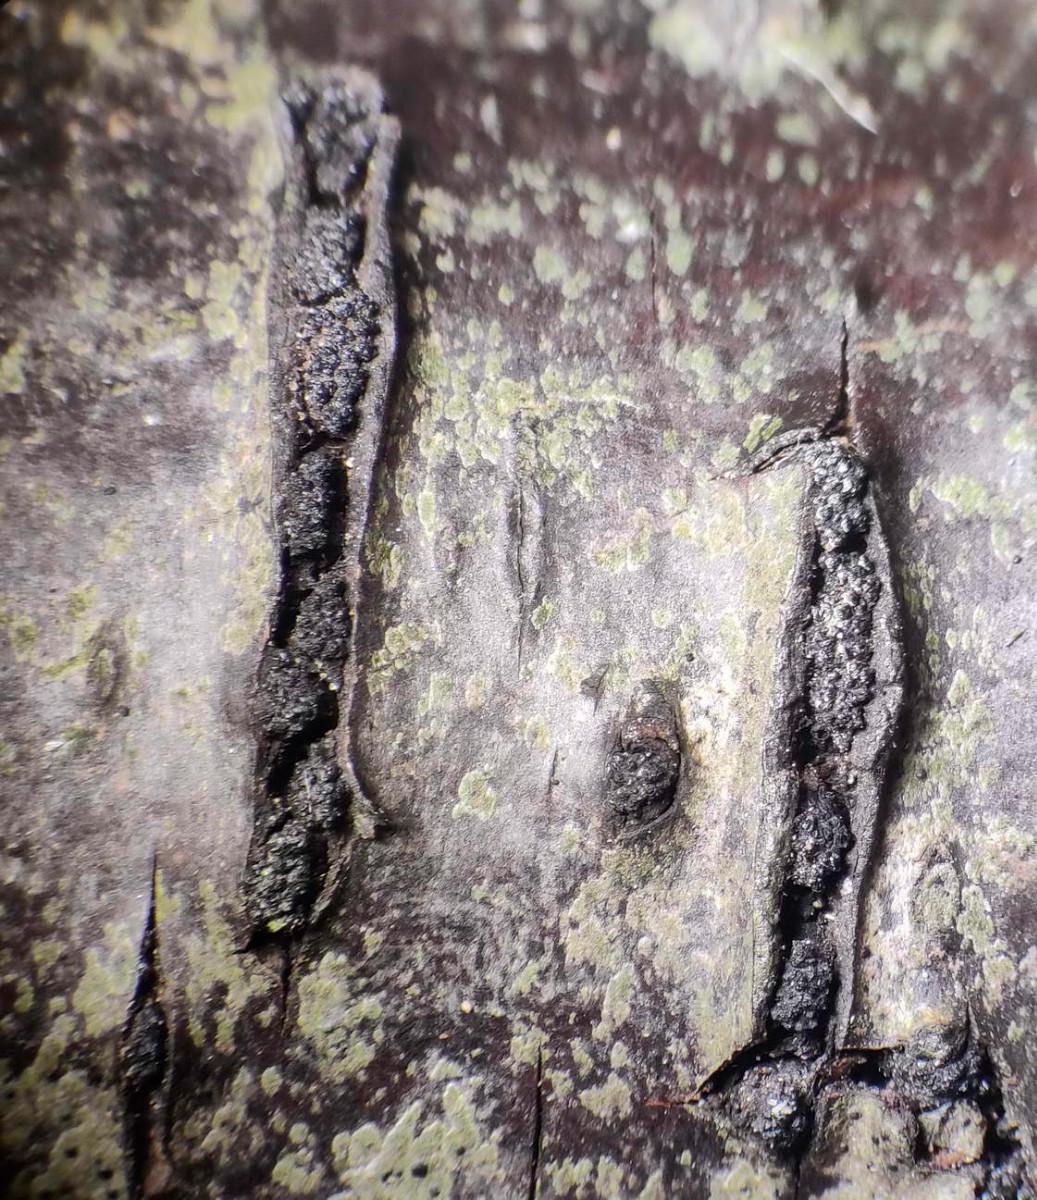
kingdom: Fungi
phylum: Ascomycota
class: Sordariomycetes
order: Xylariales
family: Diatrypaceae
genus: Eutypella
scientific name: Eutypella prunastri
